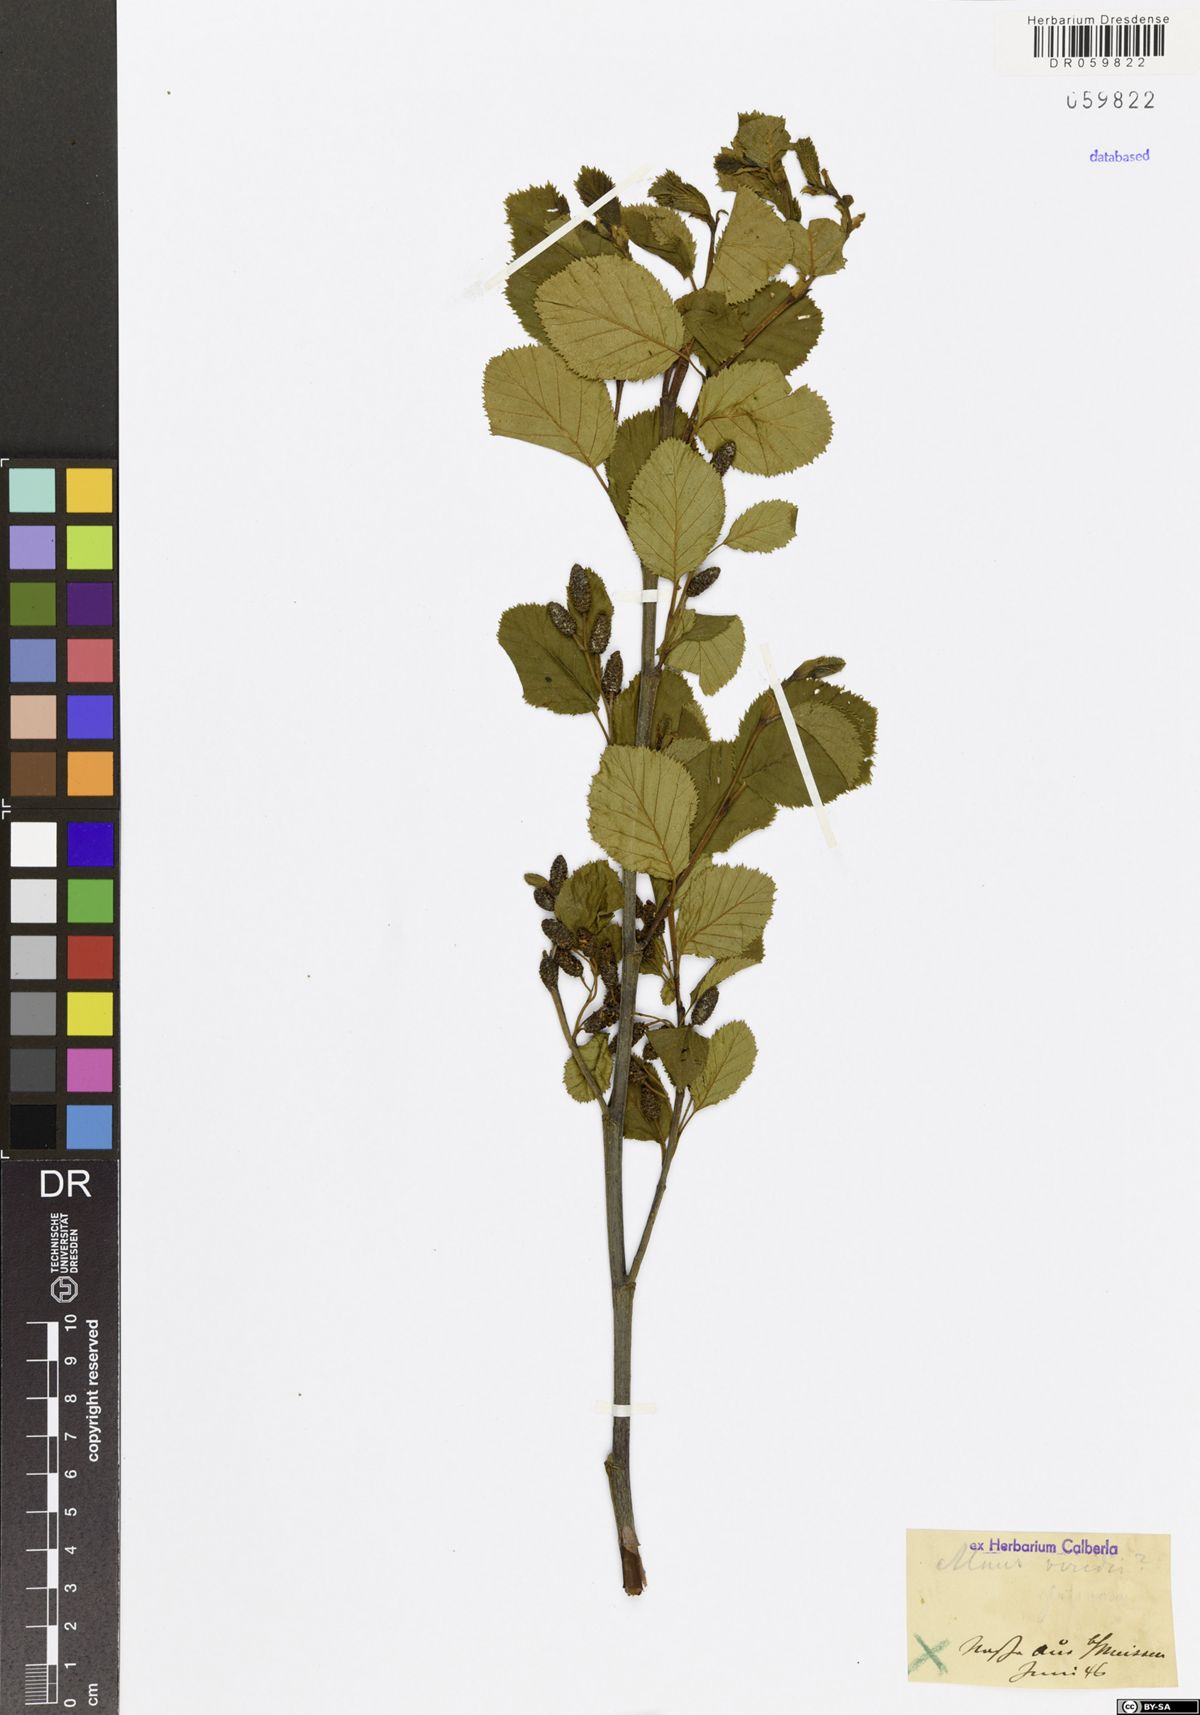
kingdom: Plantae
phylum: Tracheophyta
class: Magnoliopsida
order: Fagales
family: Betulaceae
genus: Alnus
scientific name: Alnus glutinosa
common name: Black alder
